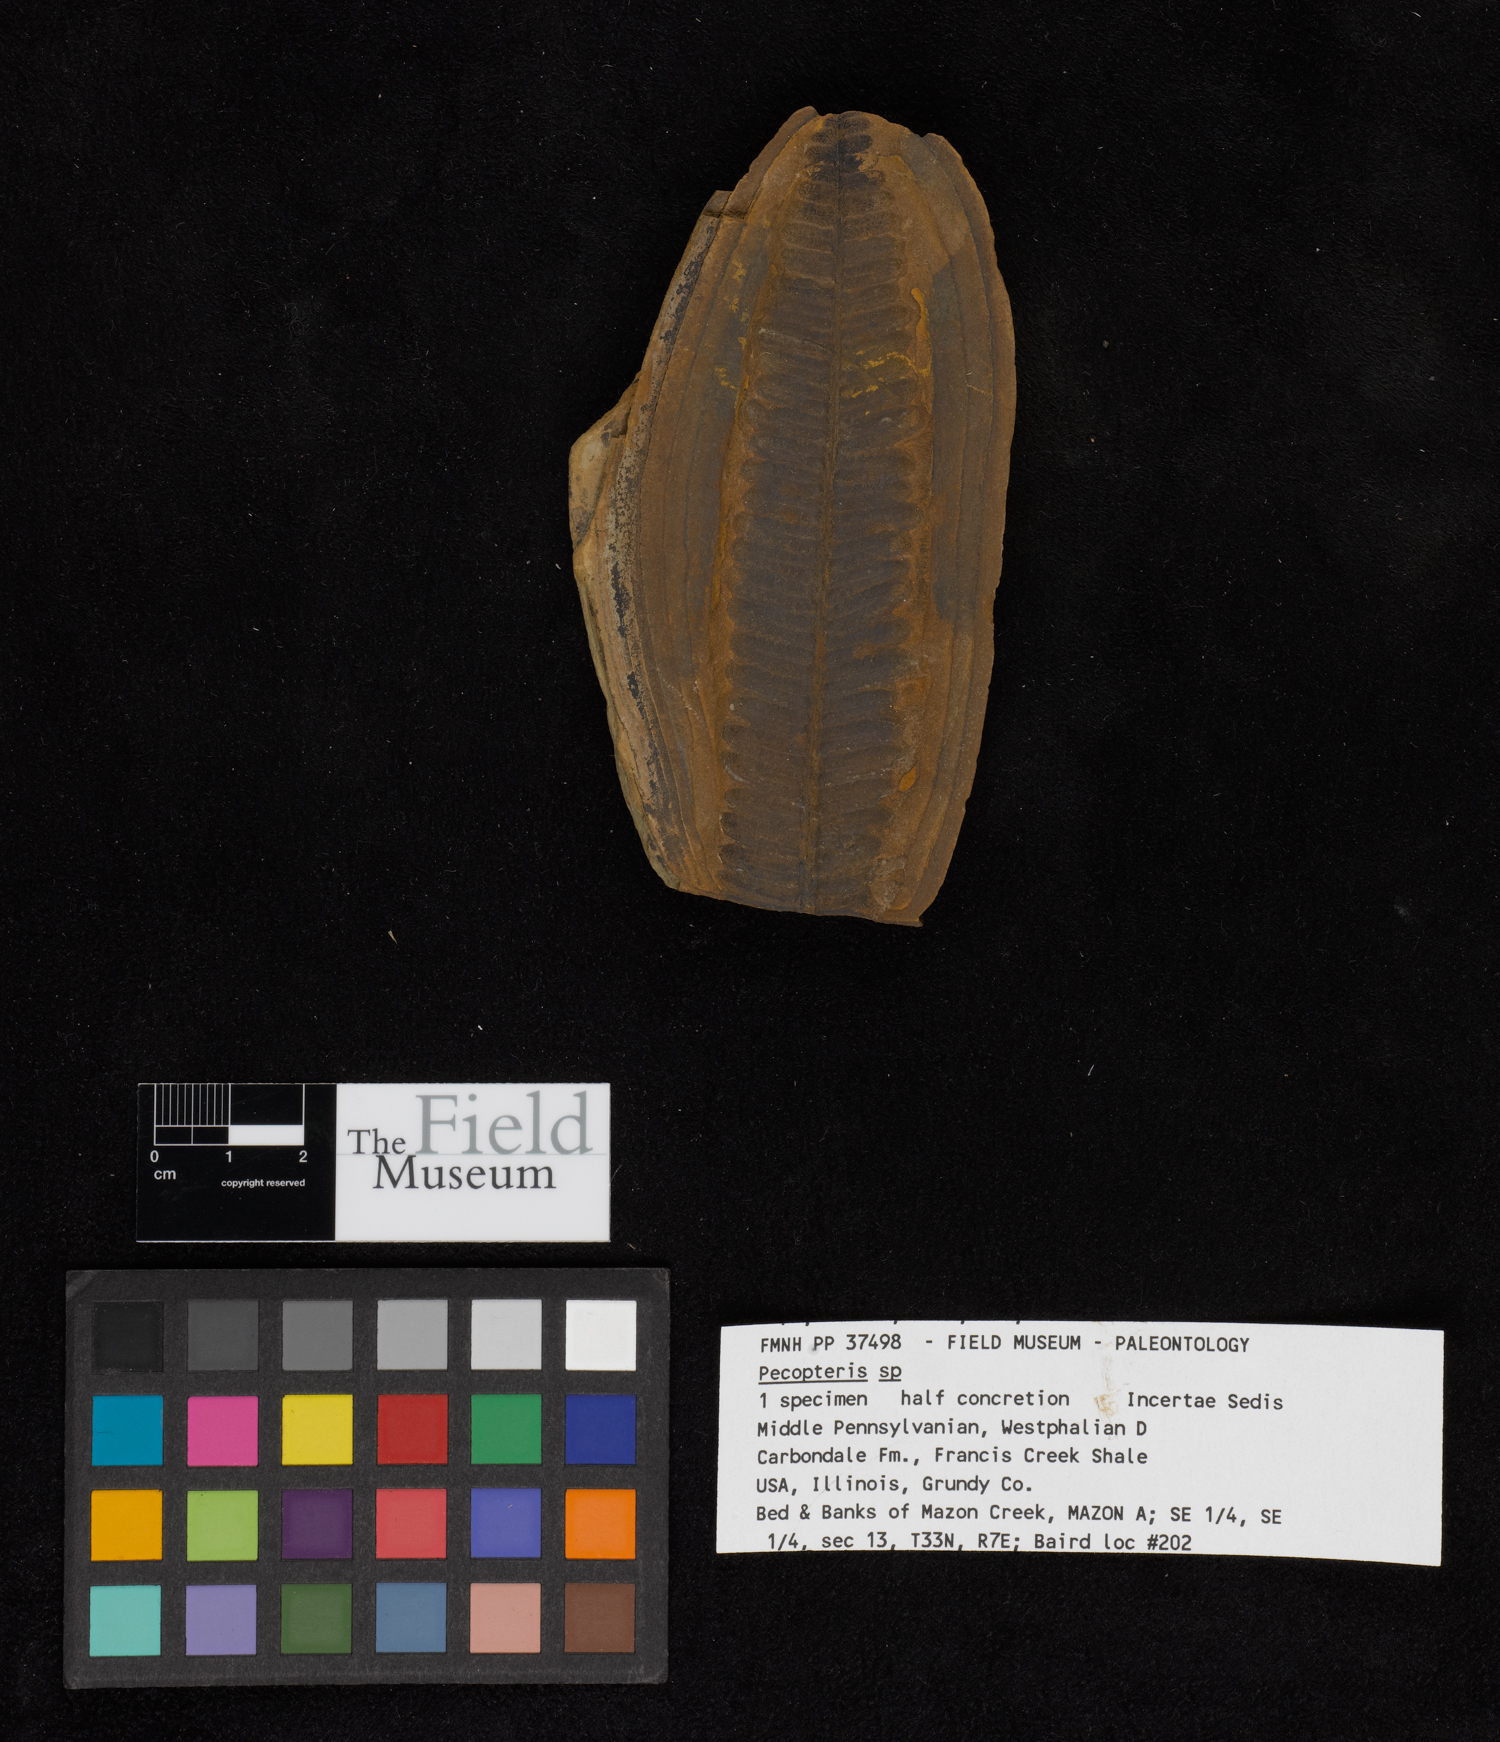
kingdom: Plantae
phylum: Tracheophyta
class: Polypodiopsida
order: Marattiales
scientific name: Marattiales
